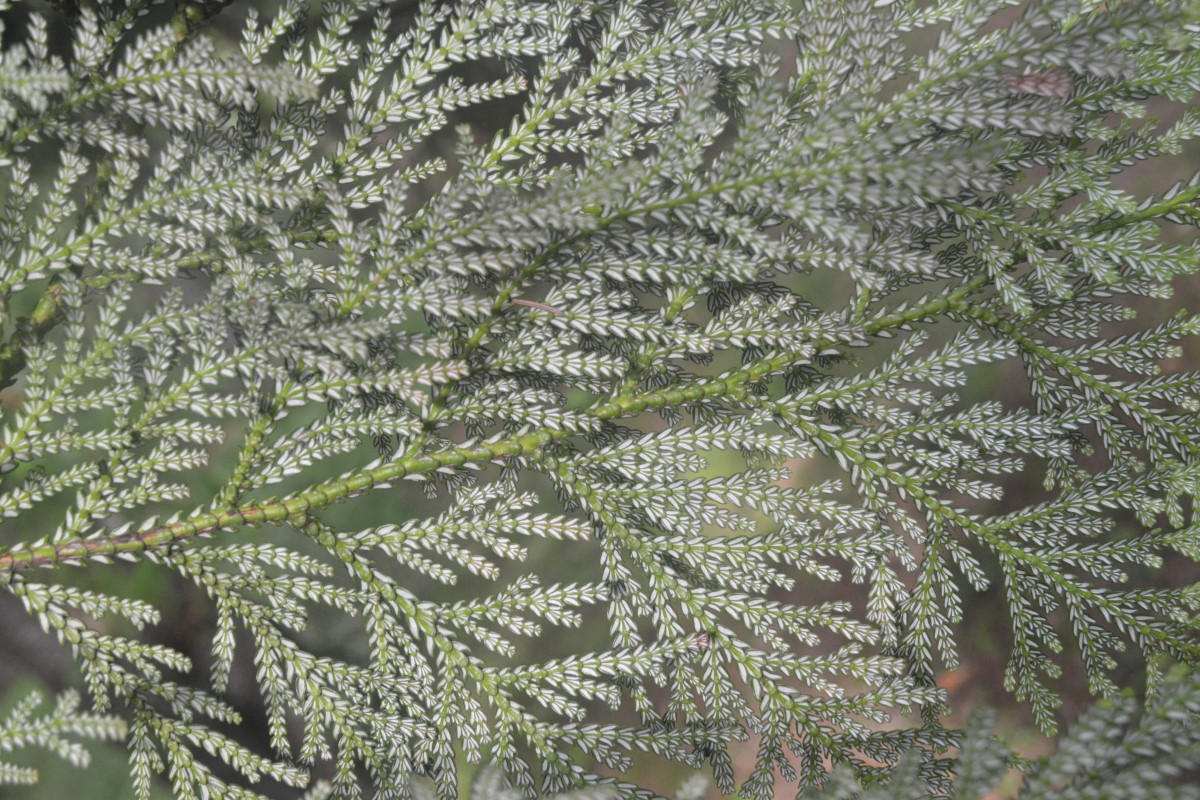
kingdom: Plantae
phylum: Tracheophyta
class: Pinopsida
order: Pinales
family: Cupressaceae
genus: Thujopsis
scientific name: Thujopsis
